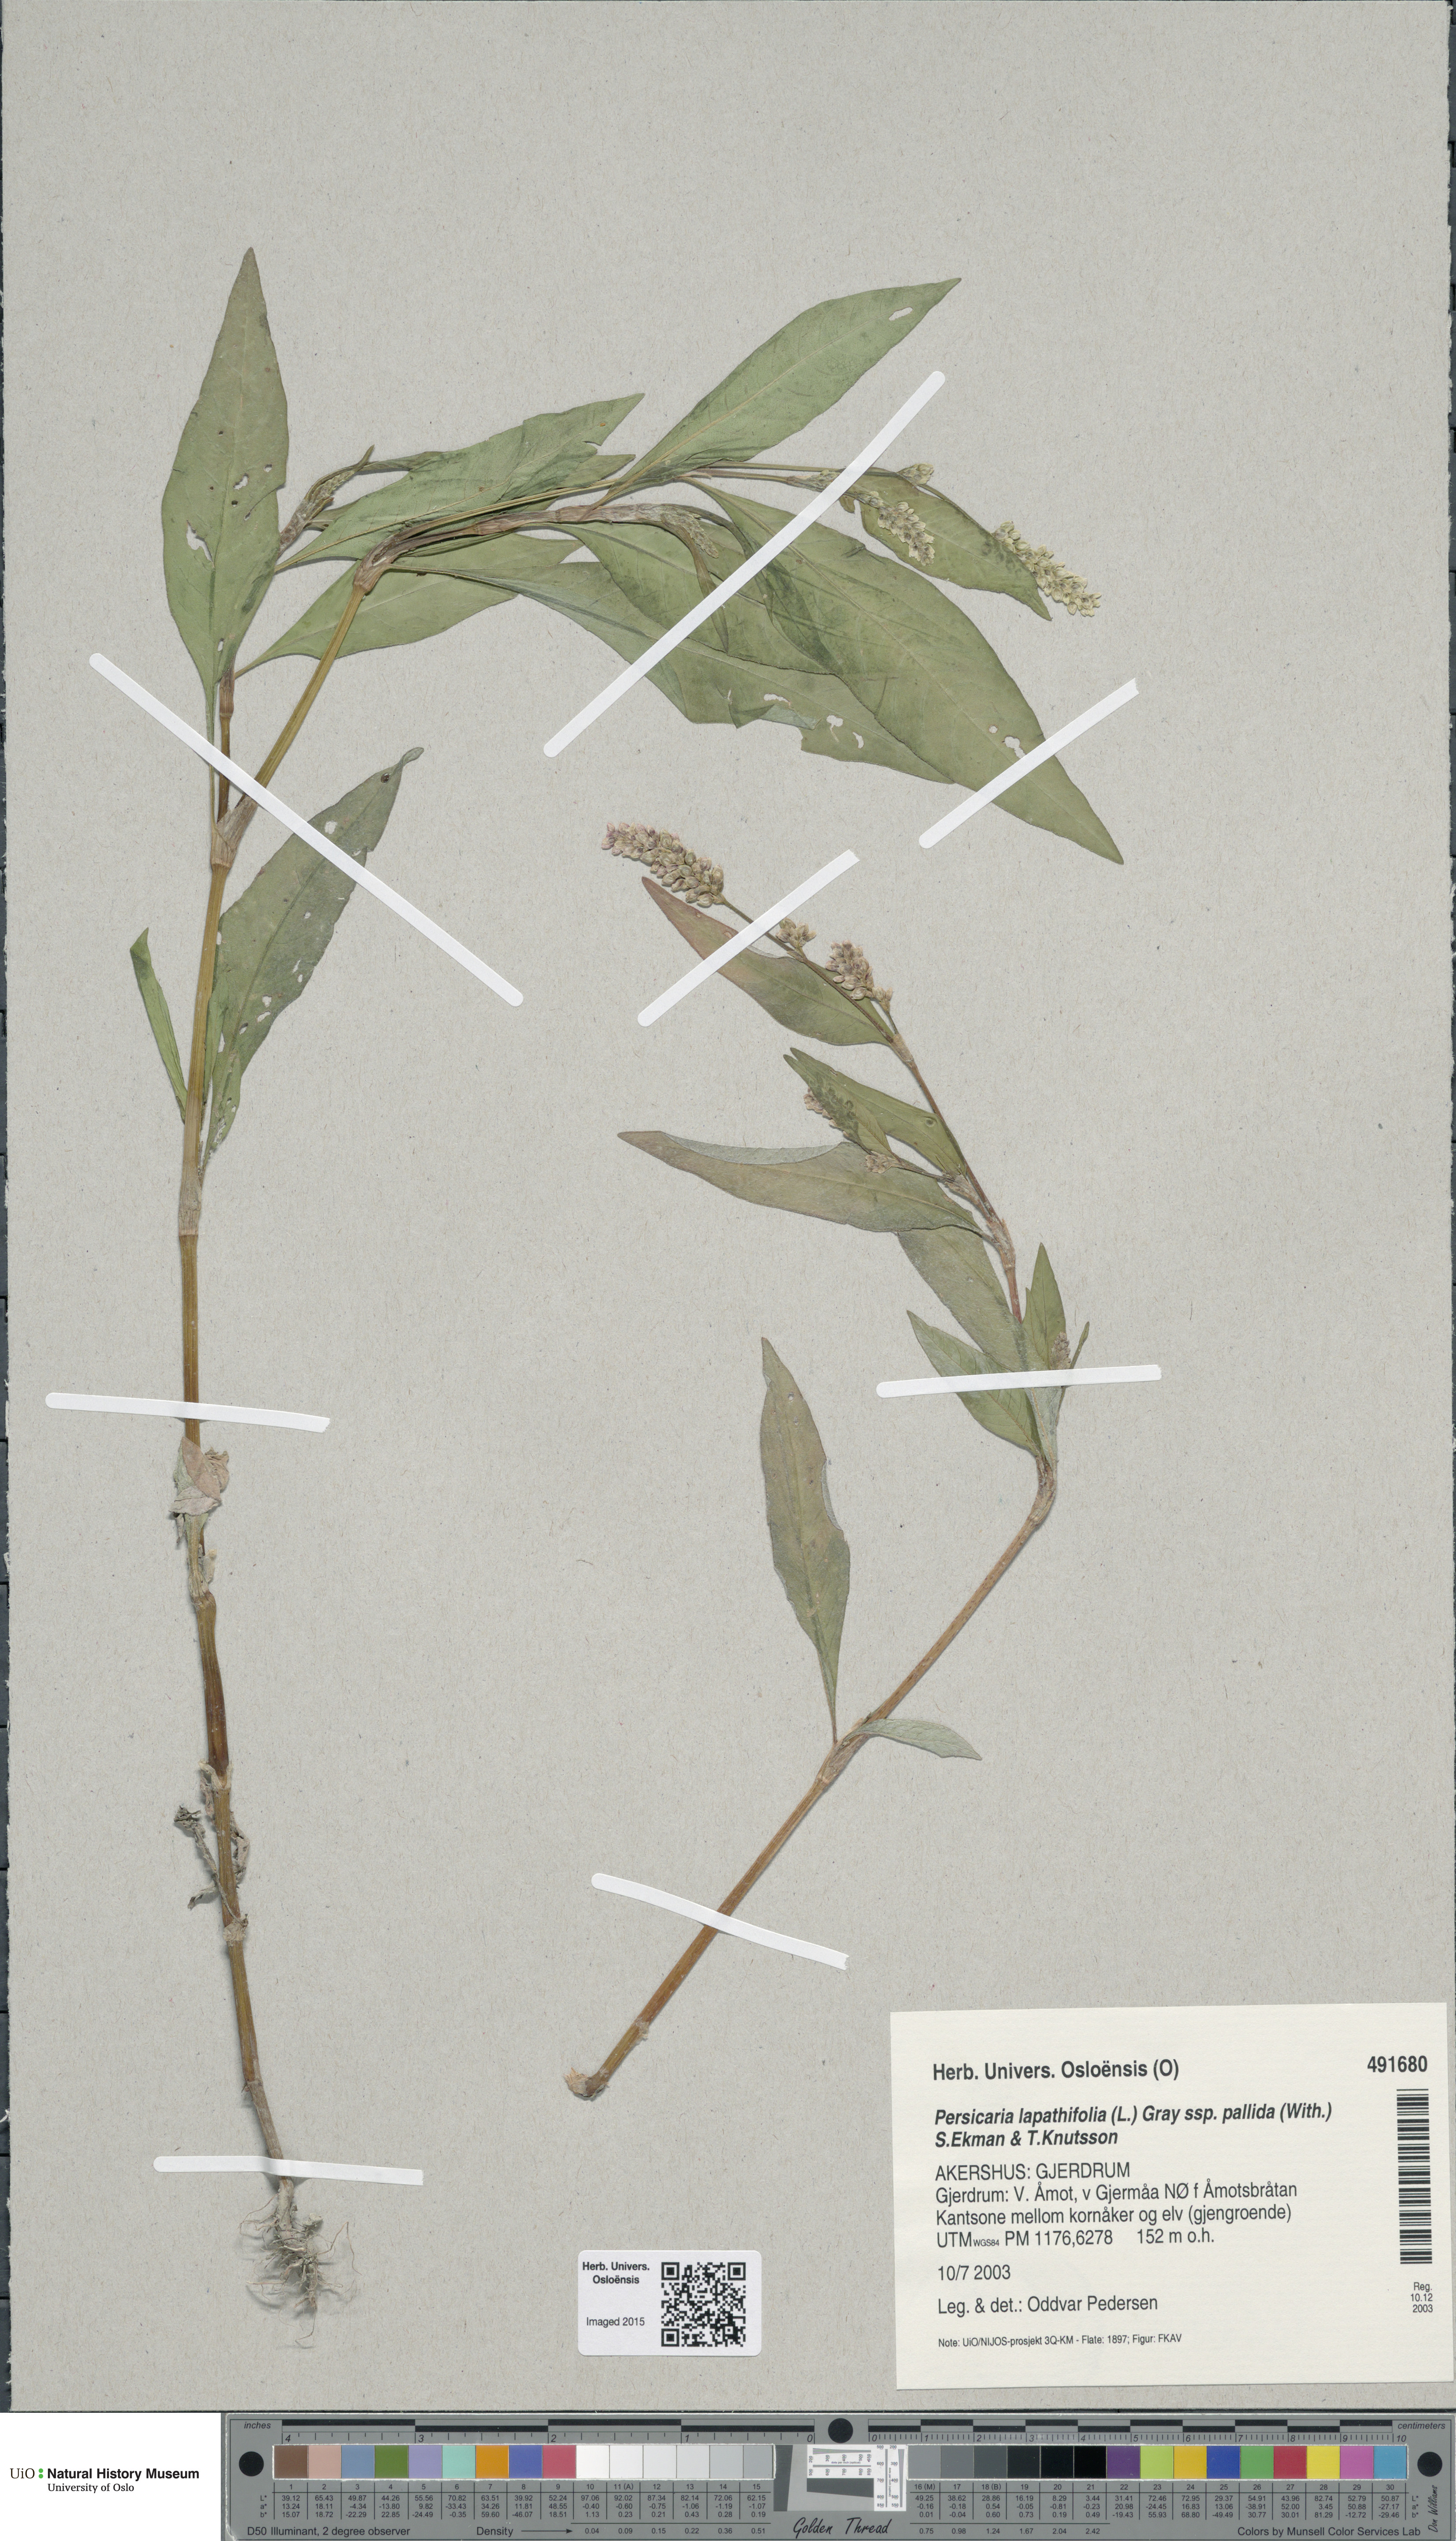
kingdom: Plantae
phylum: Tracheophyta
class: Magnoliopsida
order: Caryophyllales
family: Polygonaceae
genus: Persicaria
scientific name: Persicaria lapathifolia
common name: Curlytop knotweed
